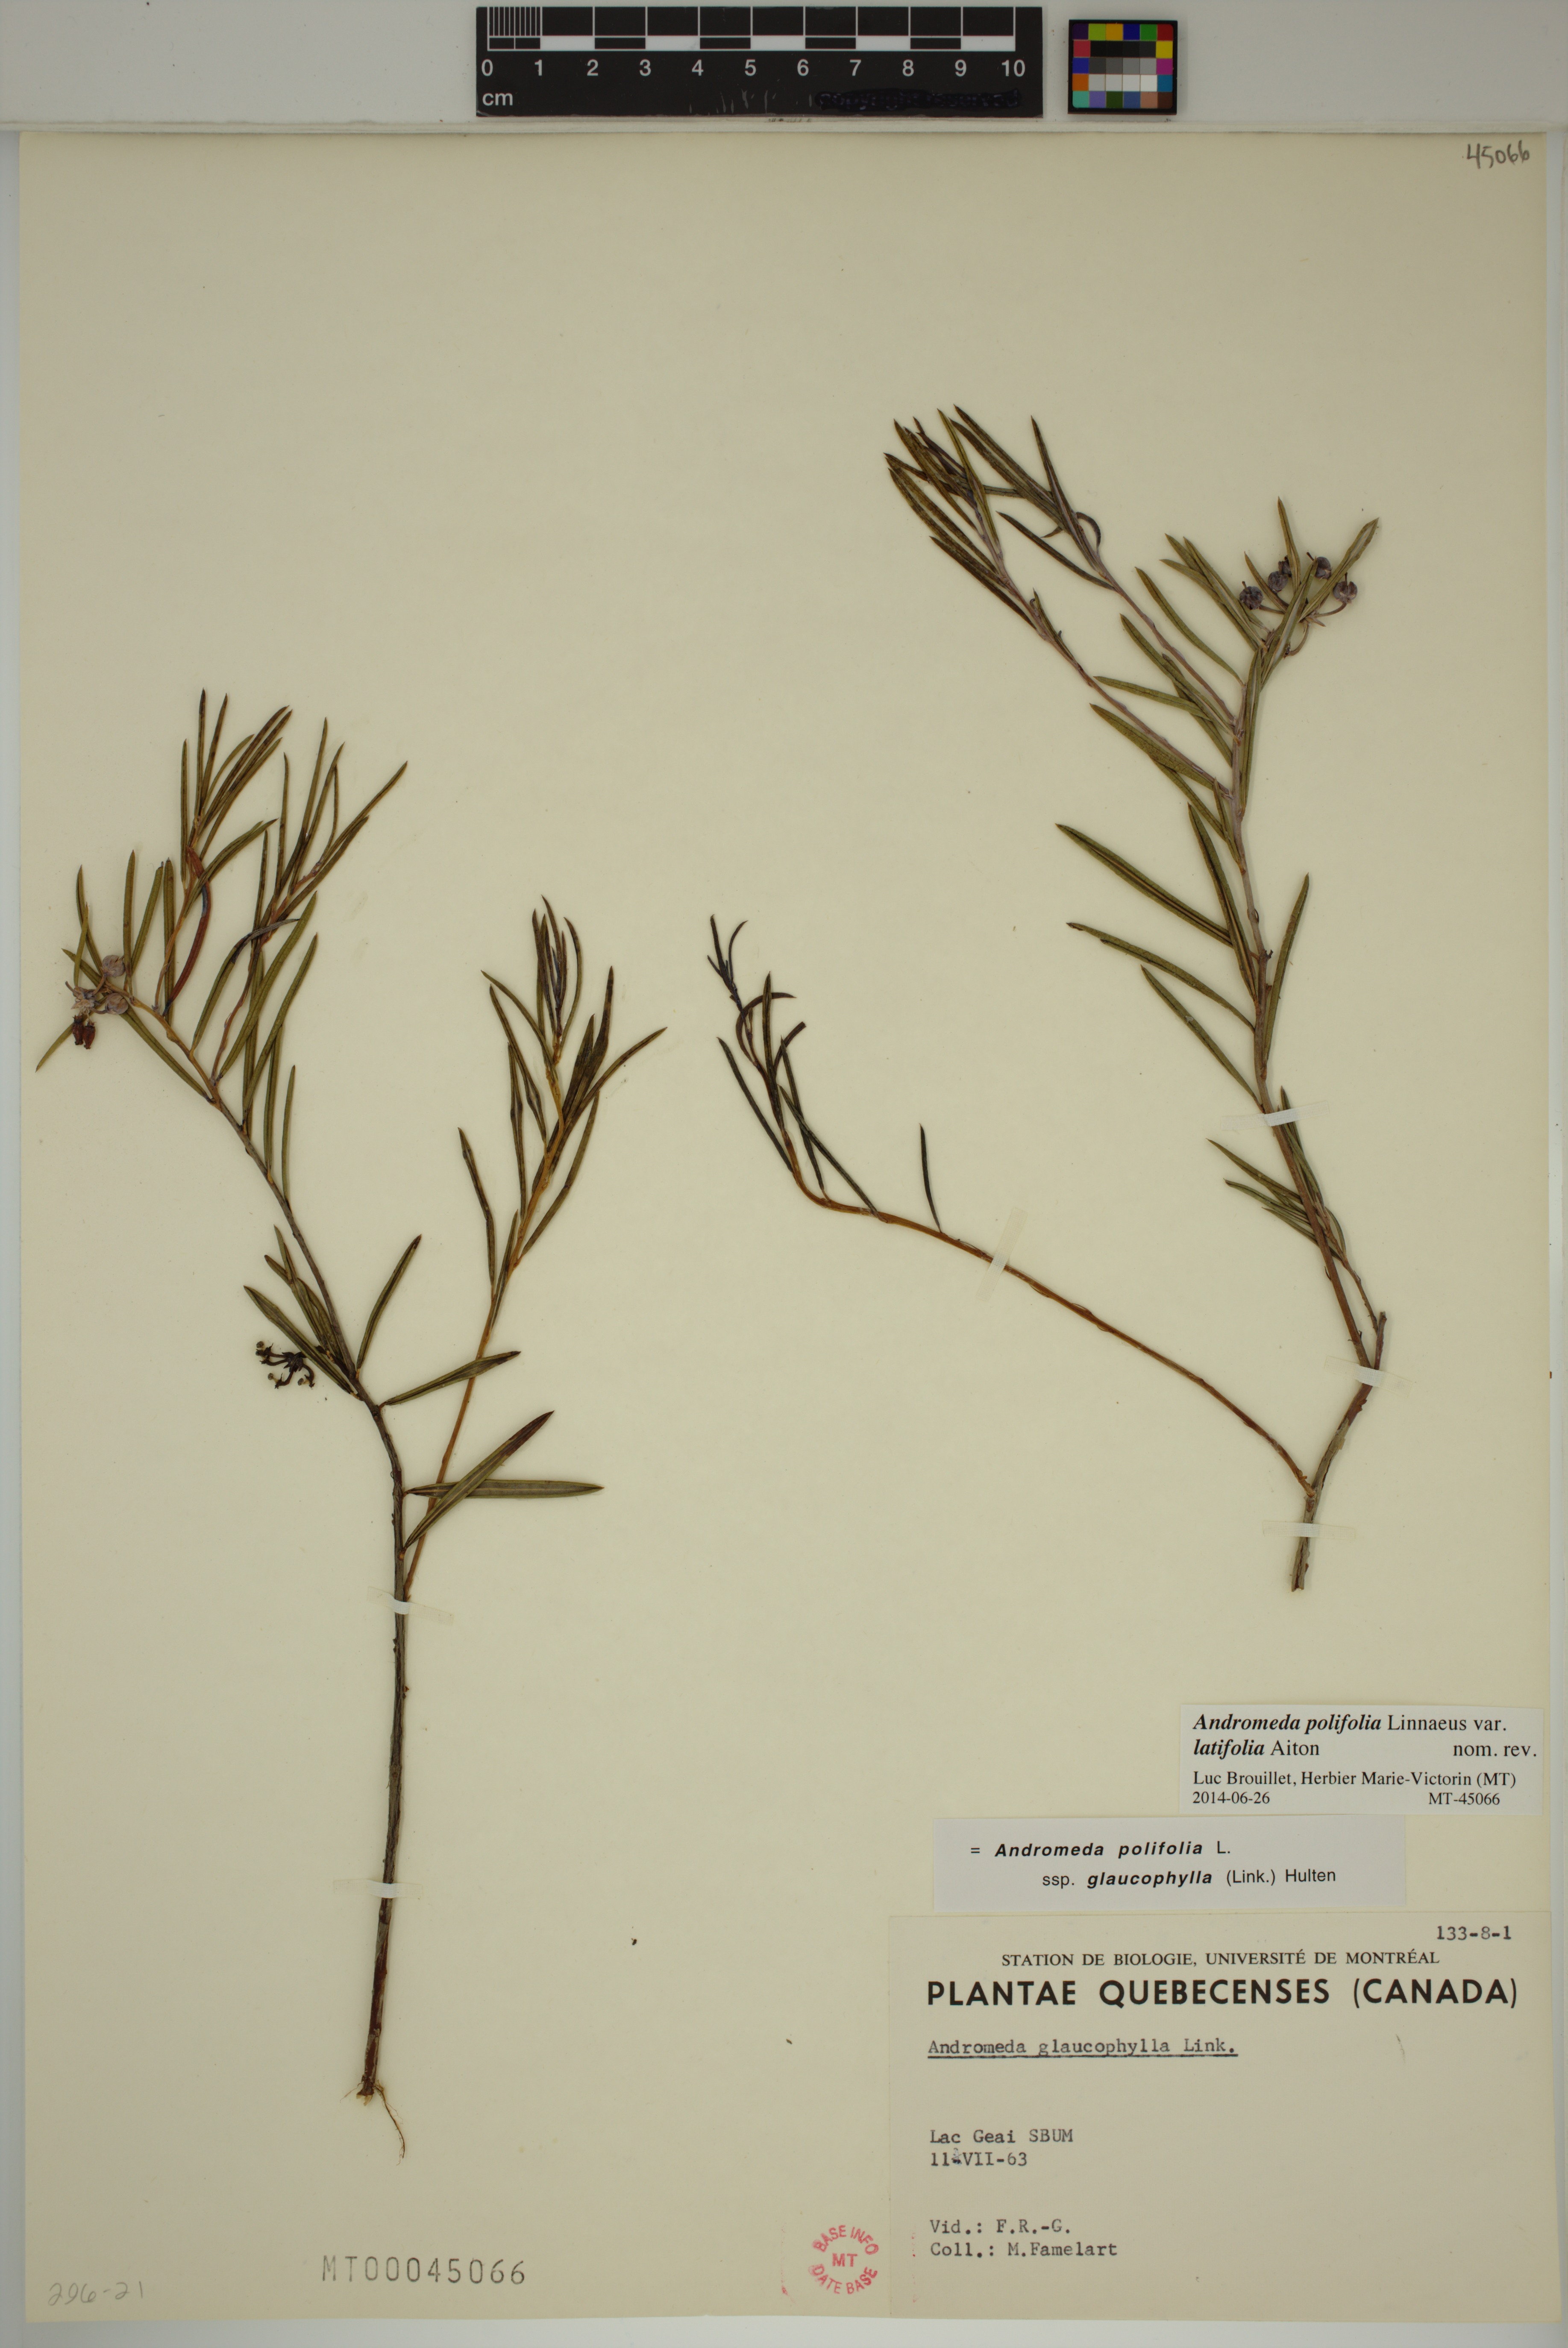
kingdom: Plantae
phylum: Tracheophyta
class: Magnoliopsida
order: Ericales
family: Ericaceae
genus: Andromeda
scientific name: Andromeda polifolia
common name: Bog-rosemary
